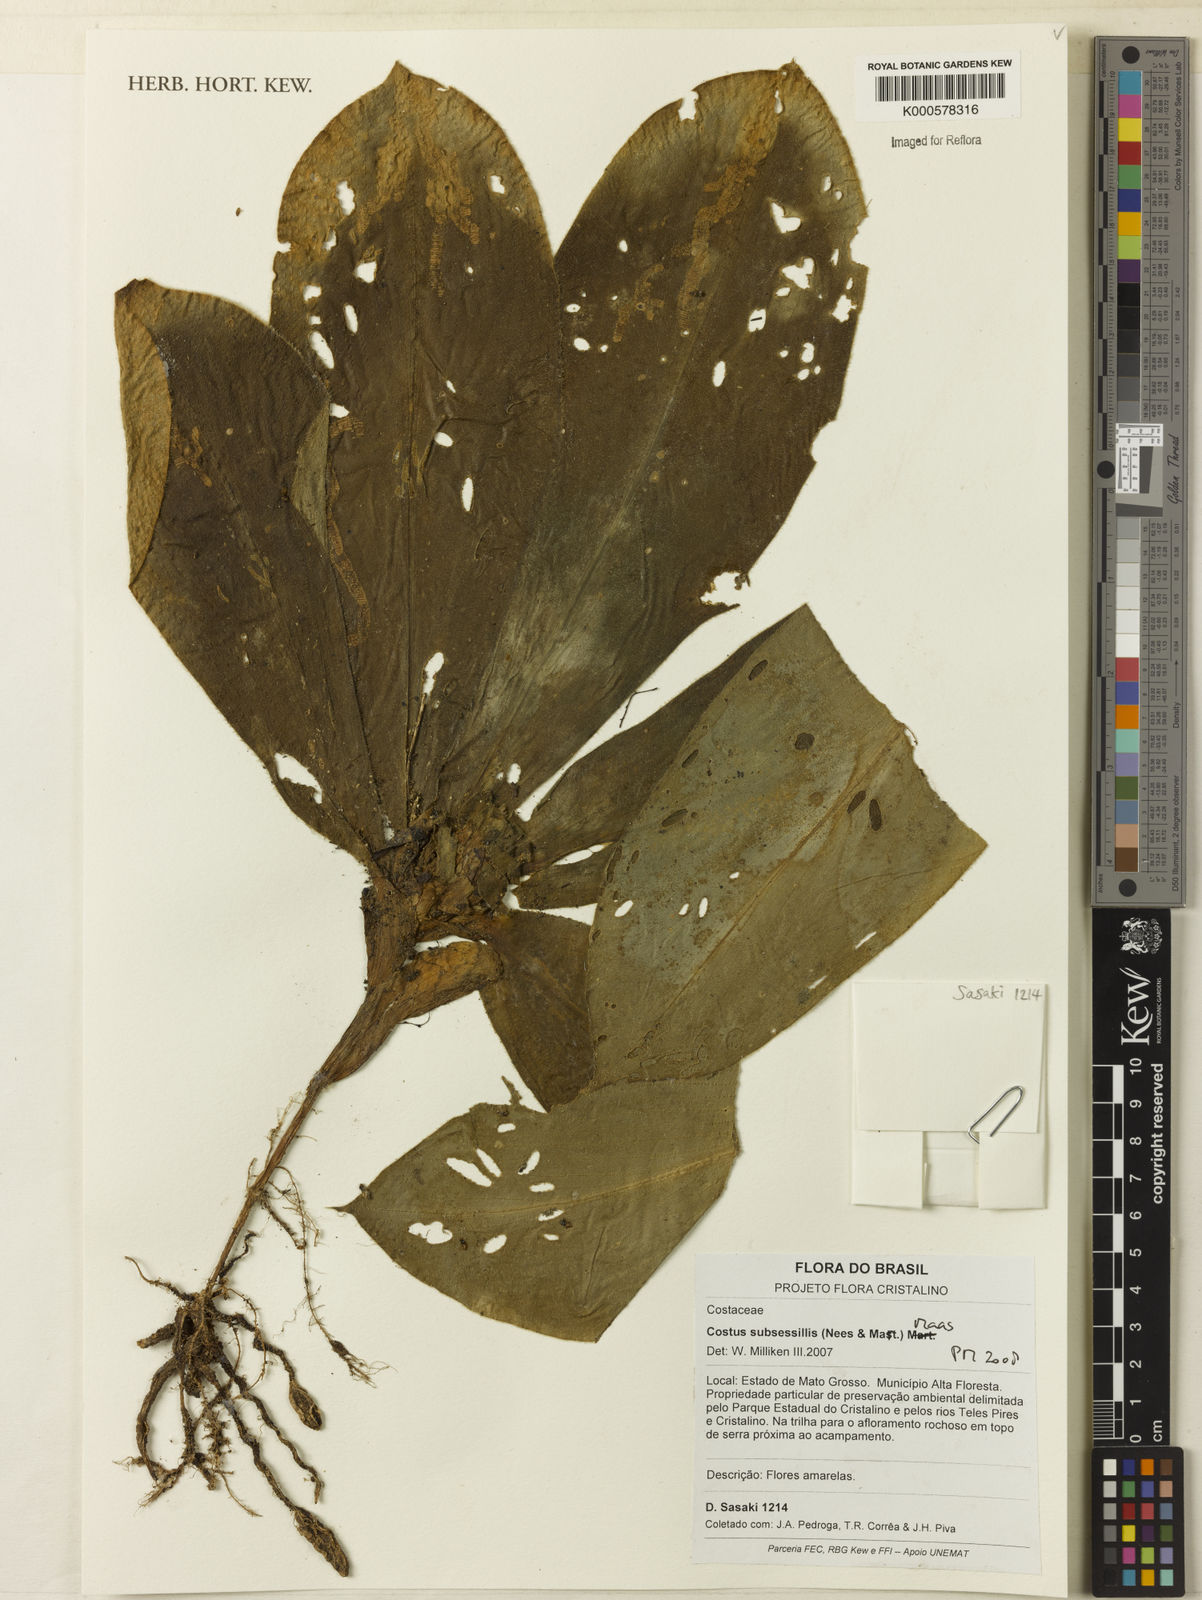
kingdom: Plantae
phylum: Tracheophyta
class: Liliopsida
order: Zingiberales
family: Costaceae
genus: Chamaecostus
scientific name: Chamaecostus subsessilis
